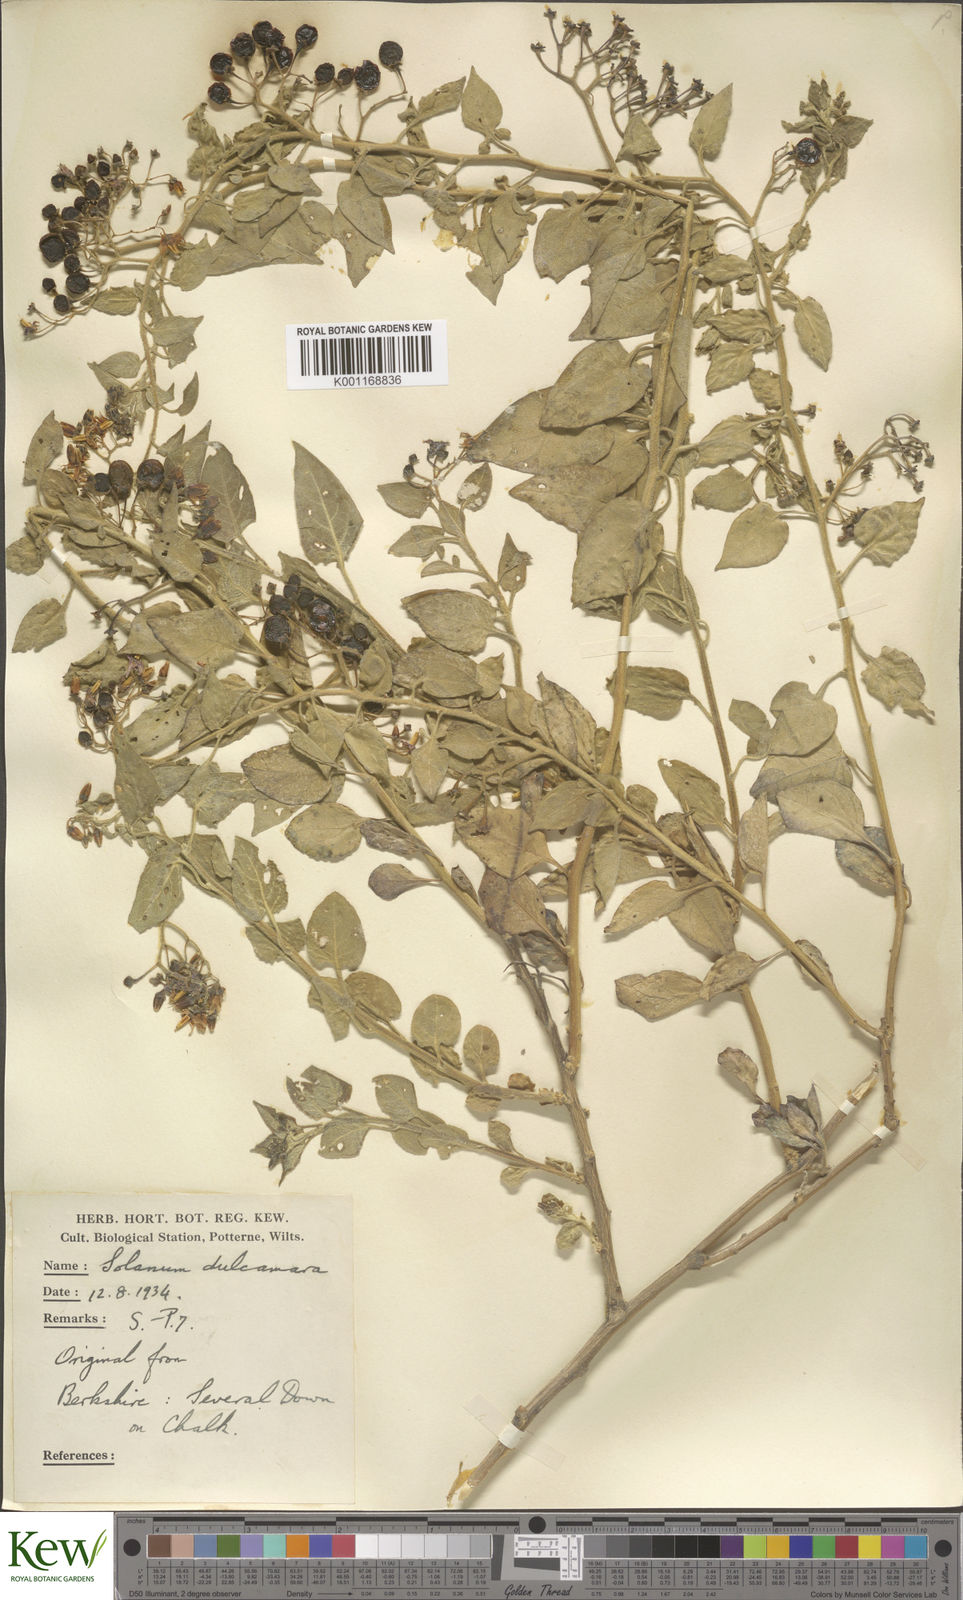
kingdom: Plantae
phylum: Tracheophyta
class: Magnoliopsida
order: Solanales
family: Solanaceae
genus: Solanum
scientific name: Solanum dulcamara
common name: Climbing nightshade
